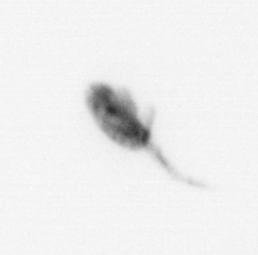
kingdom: Animalia
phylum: Arthropoda
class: Copepoda
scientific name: Copepoda
